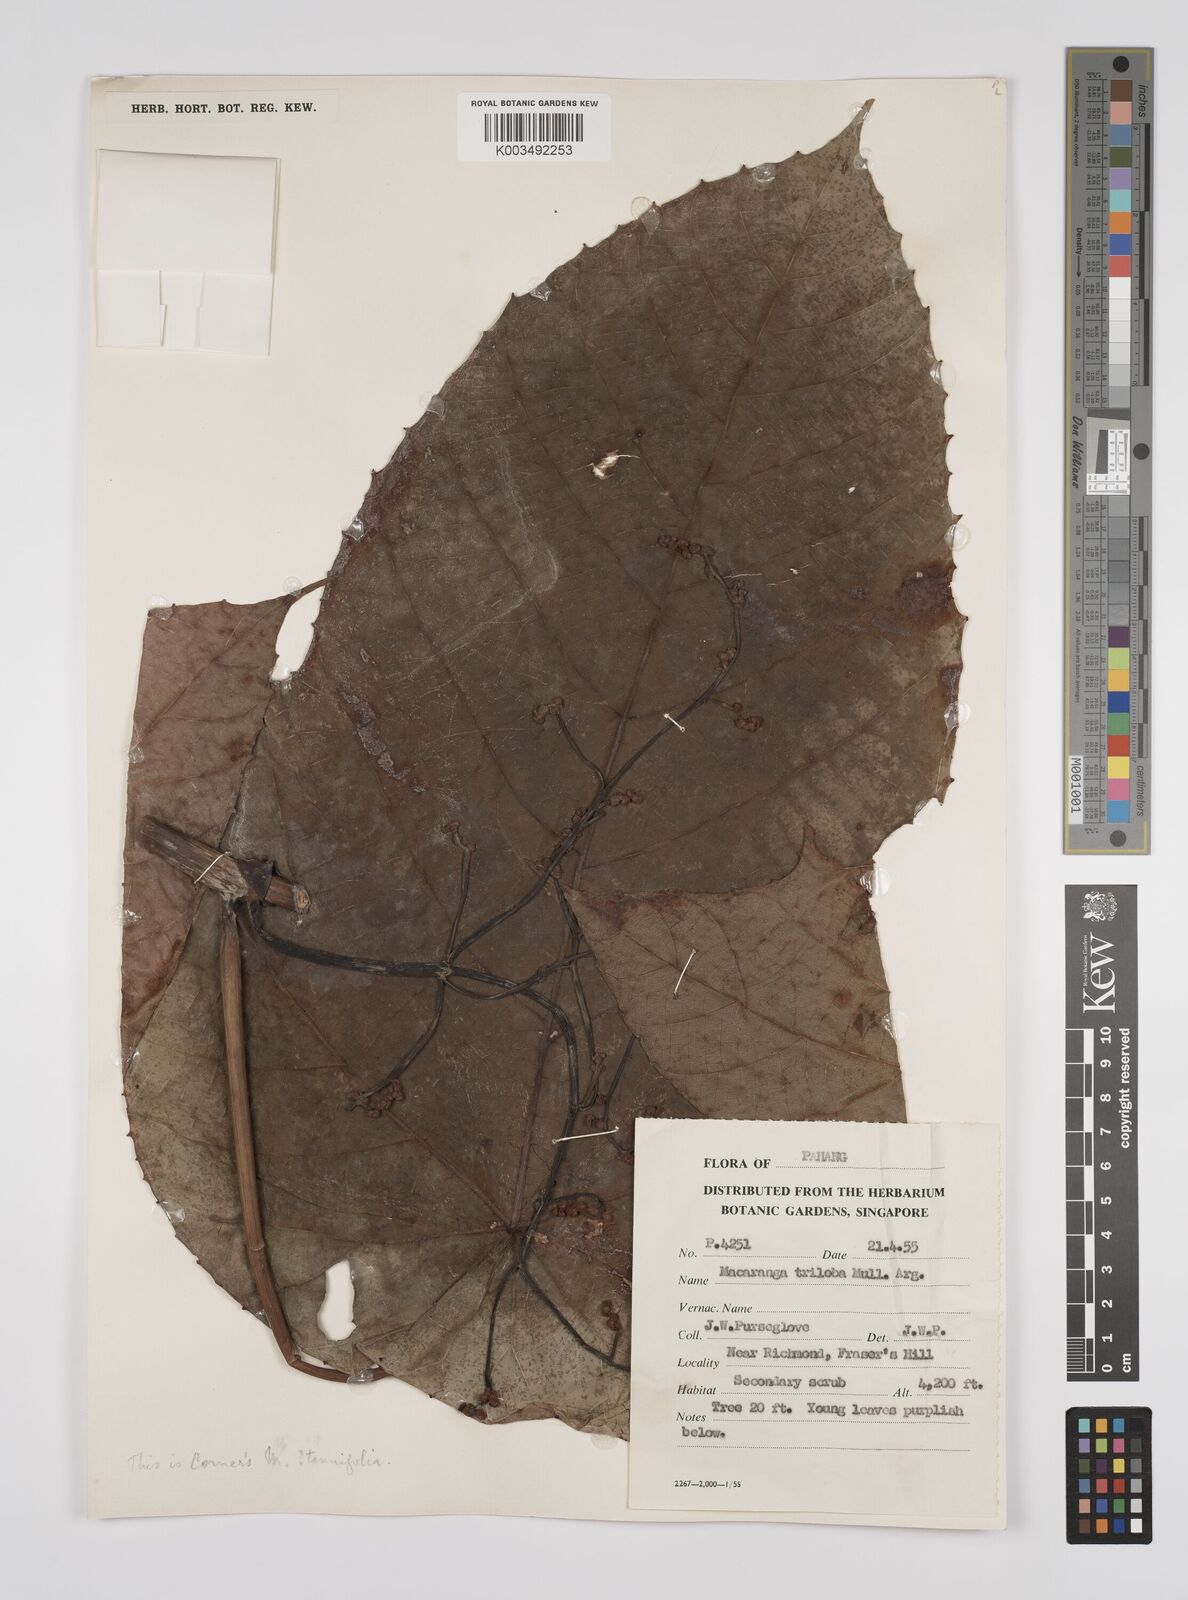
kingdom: Plantae
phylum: Tracheophyta
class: Magnoliopsida
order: Malpighiales
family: Euphorbiaceae
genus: Macaranga
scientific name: Macaranga triloba
